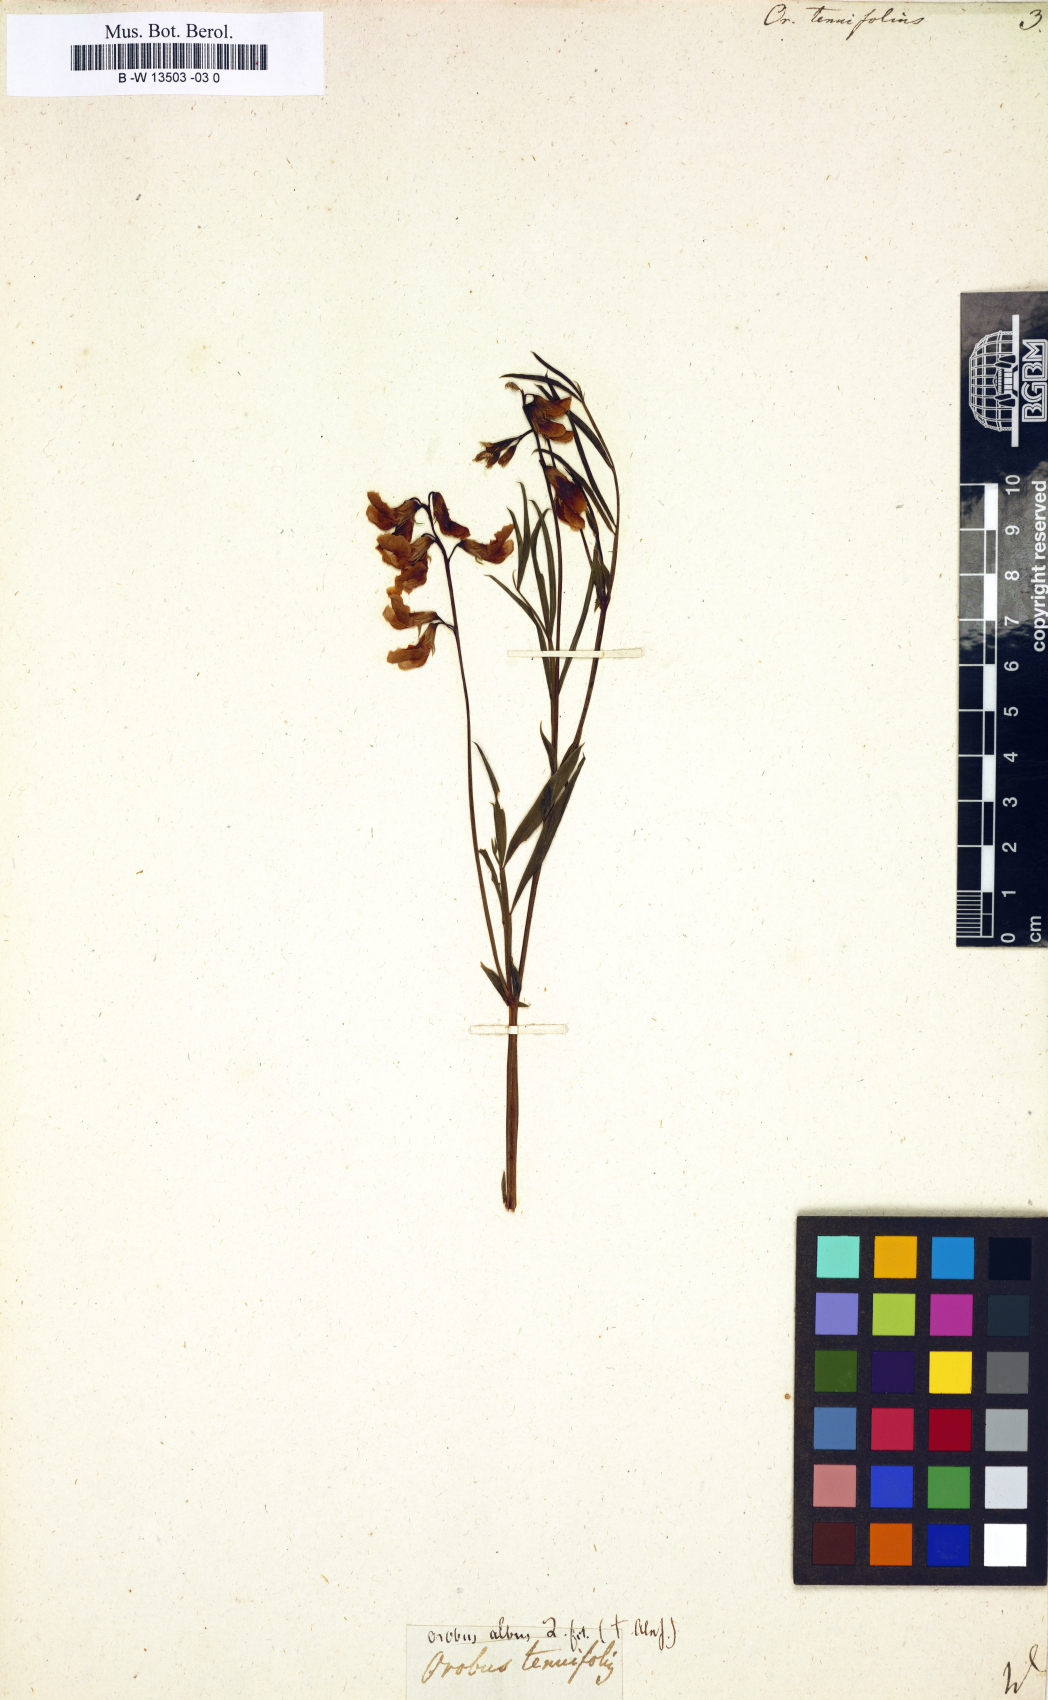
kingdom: Plantae
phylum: Tracheophyta
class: Magnoliopsida
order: Fabales
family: Fabaceae
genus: Lathyrus
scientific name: Lathyrus
